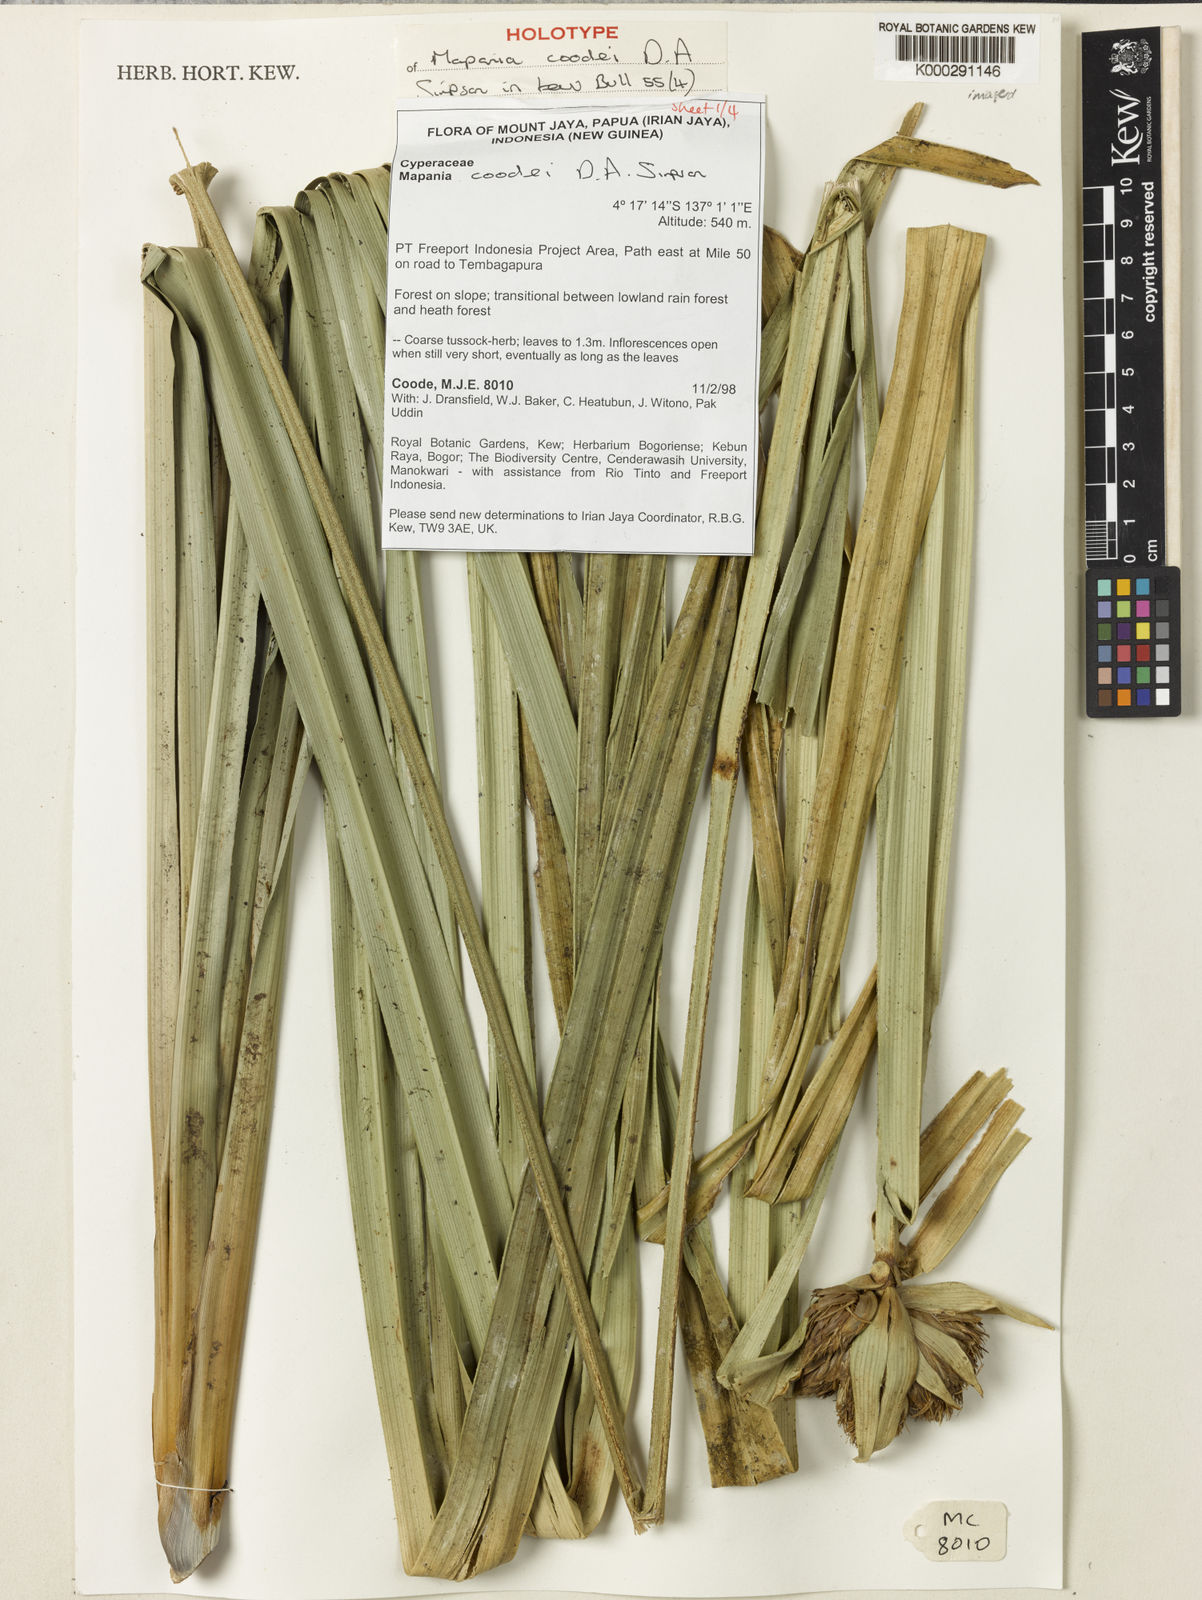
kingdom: Plantae
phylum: Tracheophyta
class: Liliopsida
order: Poales
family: Cyperaceae
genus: Mapania
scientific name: Mapania coodei
